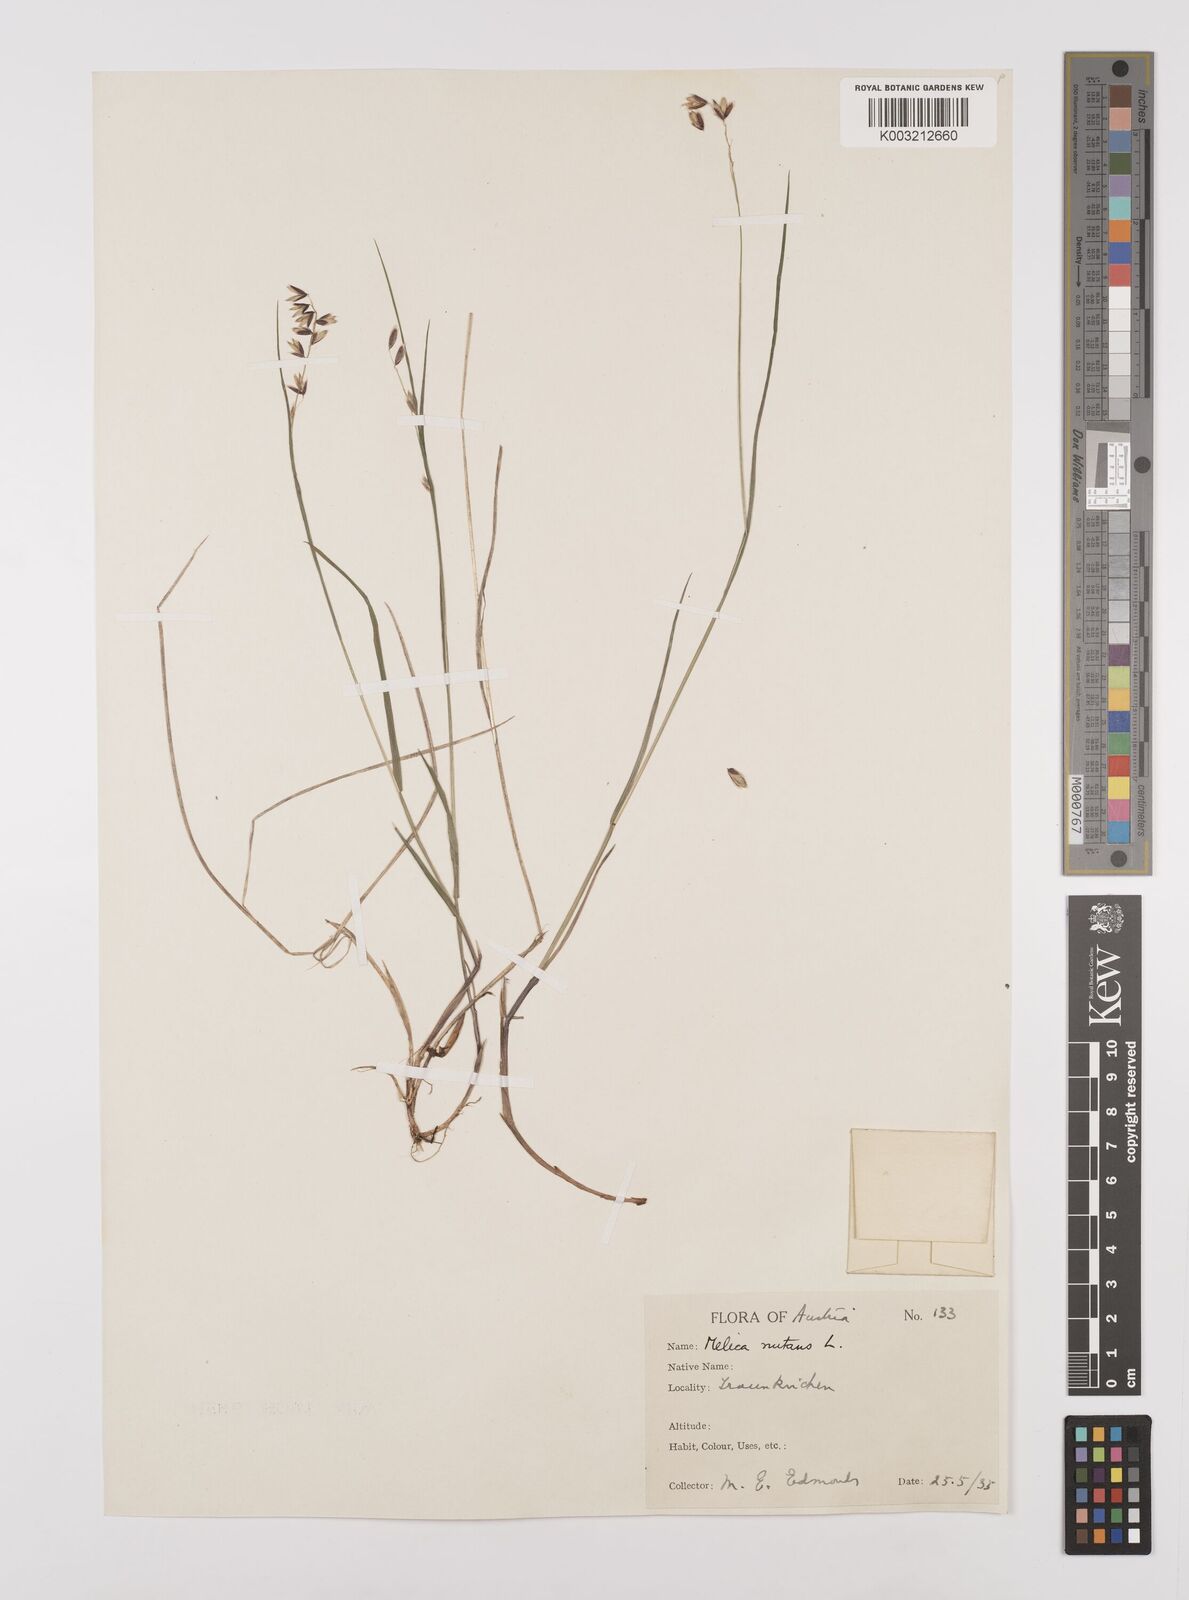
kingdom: Plantae
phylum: Tracheophyta
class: Liliopsida
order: Poales
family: Poaceae
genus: Melica
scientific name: Melica
